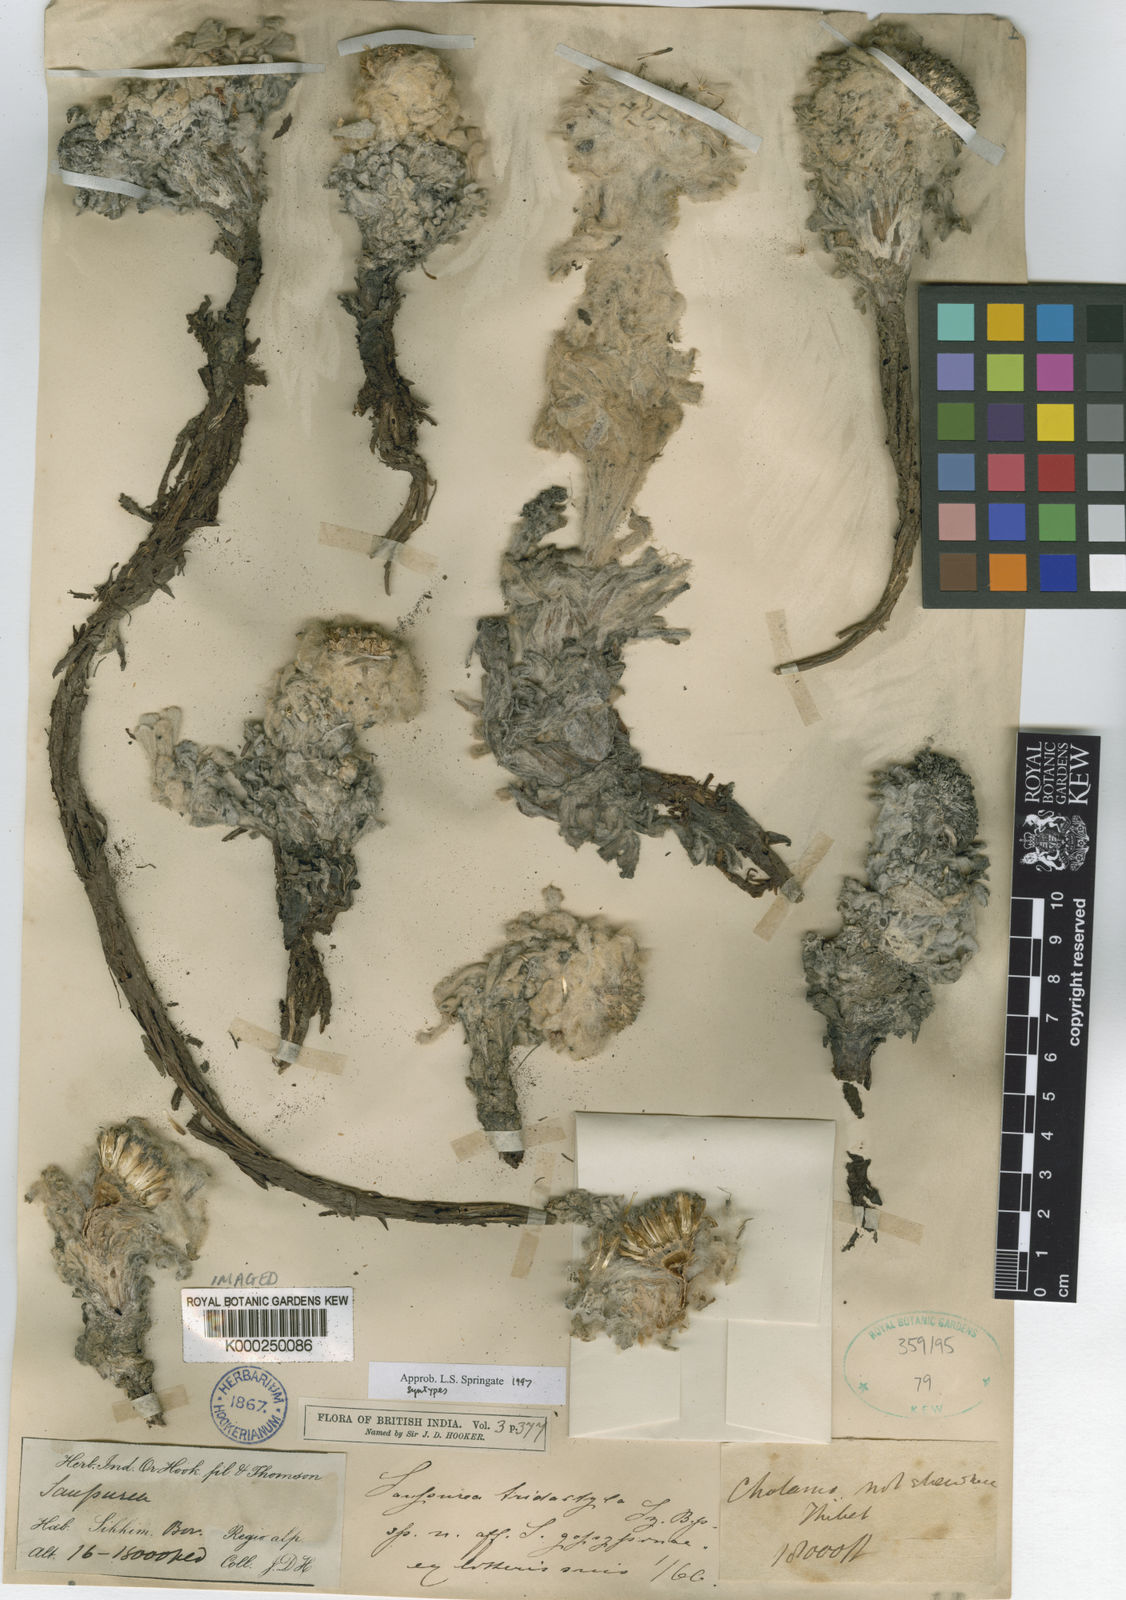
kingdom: Plantae
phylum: Tracheophyta
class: Magnoliopsida
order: Asterales
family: Asteraceae
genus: Saussurea
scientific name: Saussurea tridactyla
